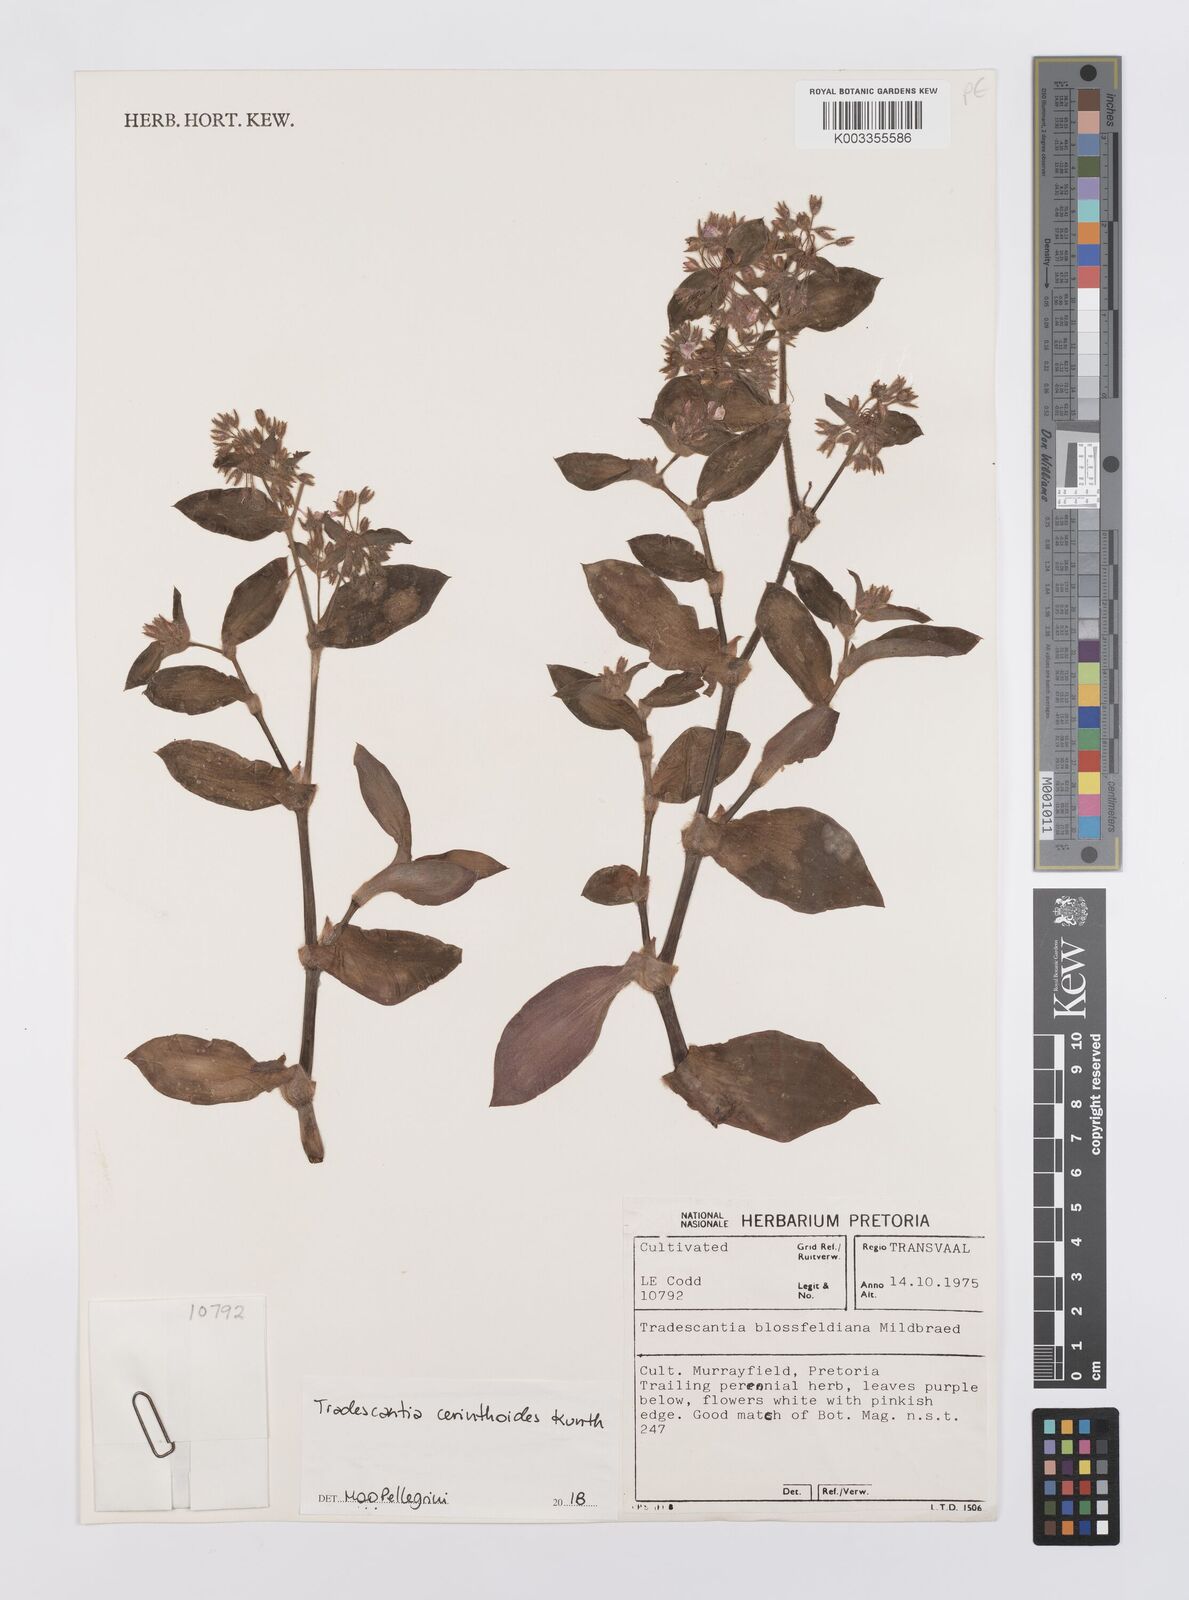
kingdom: Plantae
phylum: Tracheophyta
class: Liliopsida
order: Commelinales
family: Commelinaceae
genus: Tradescantia
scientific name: Tradescantia cerinthoides
